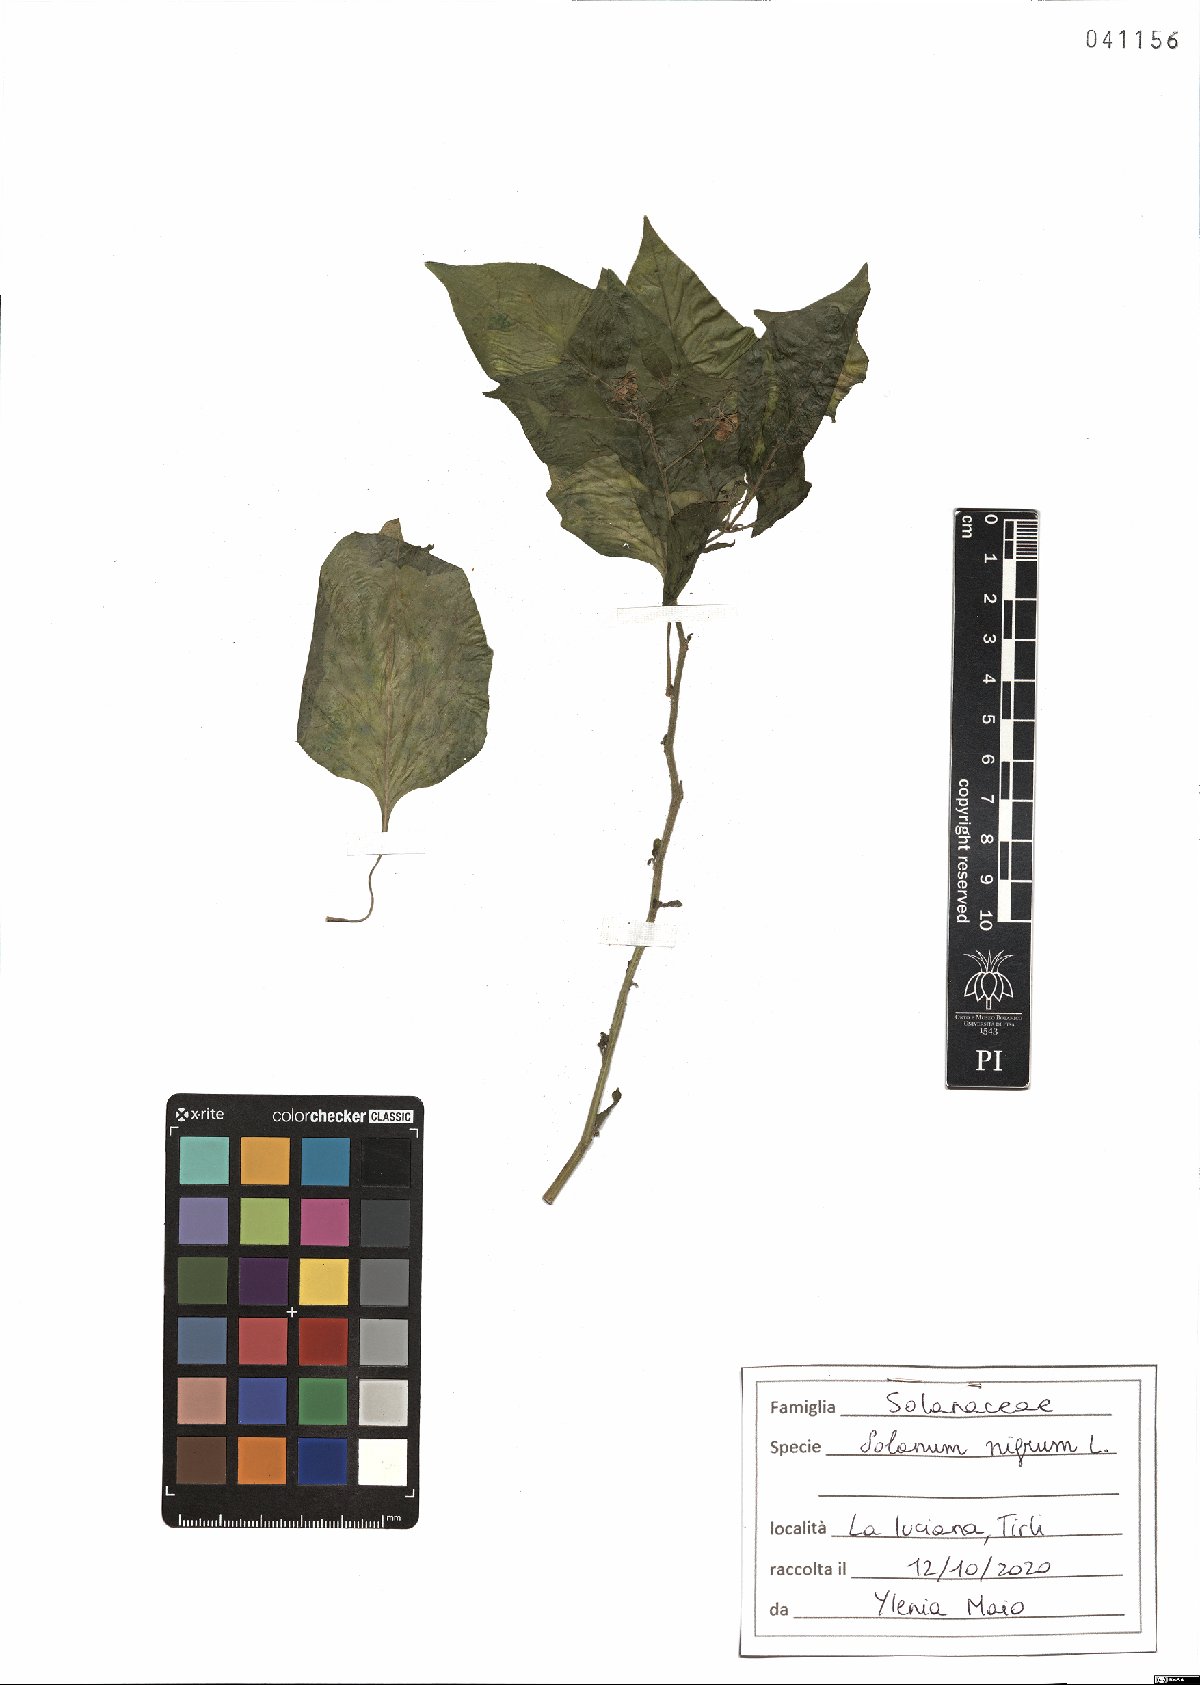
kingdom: Plantae
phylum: Tracheophyta
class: Magnoliopsida
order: Solanales
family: Solanaceae
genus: Solanum
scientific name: Solanum nigrum
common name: Black nightshade
